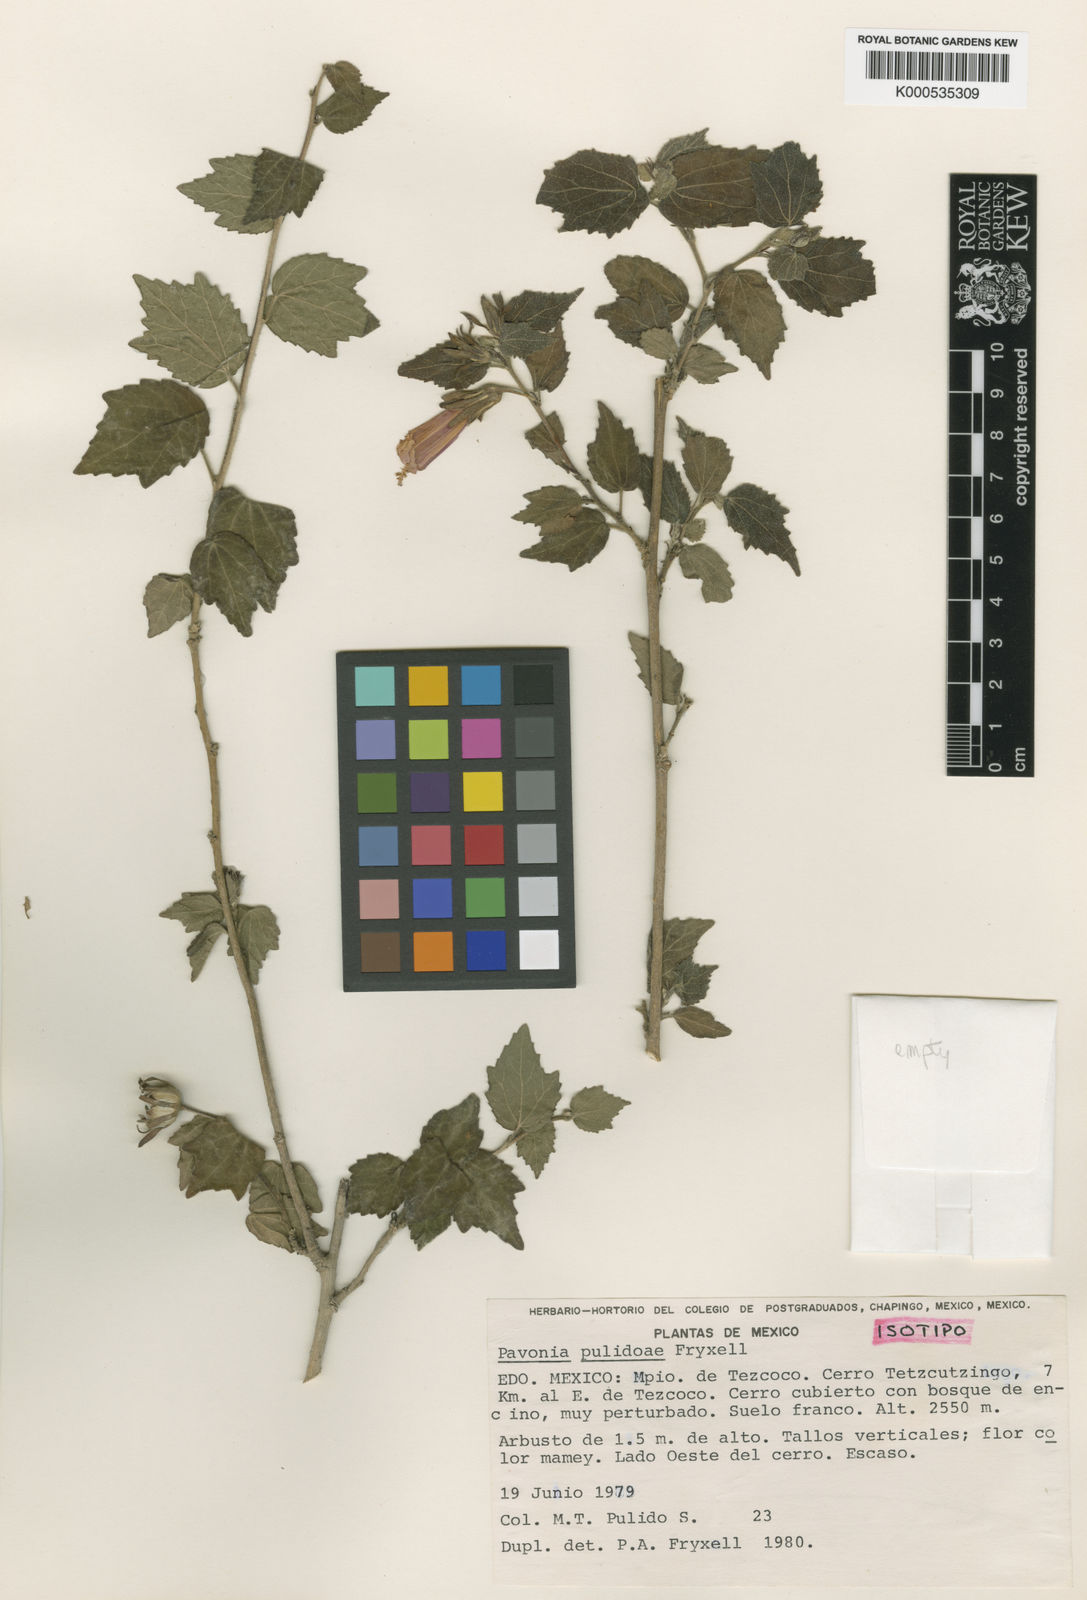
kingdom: Plantae
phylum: Tracheophyta
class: Magnoliopsida
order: Malvales
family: Malvaceae
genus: Pavonia
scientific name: Pavonia pulidoae
